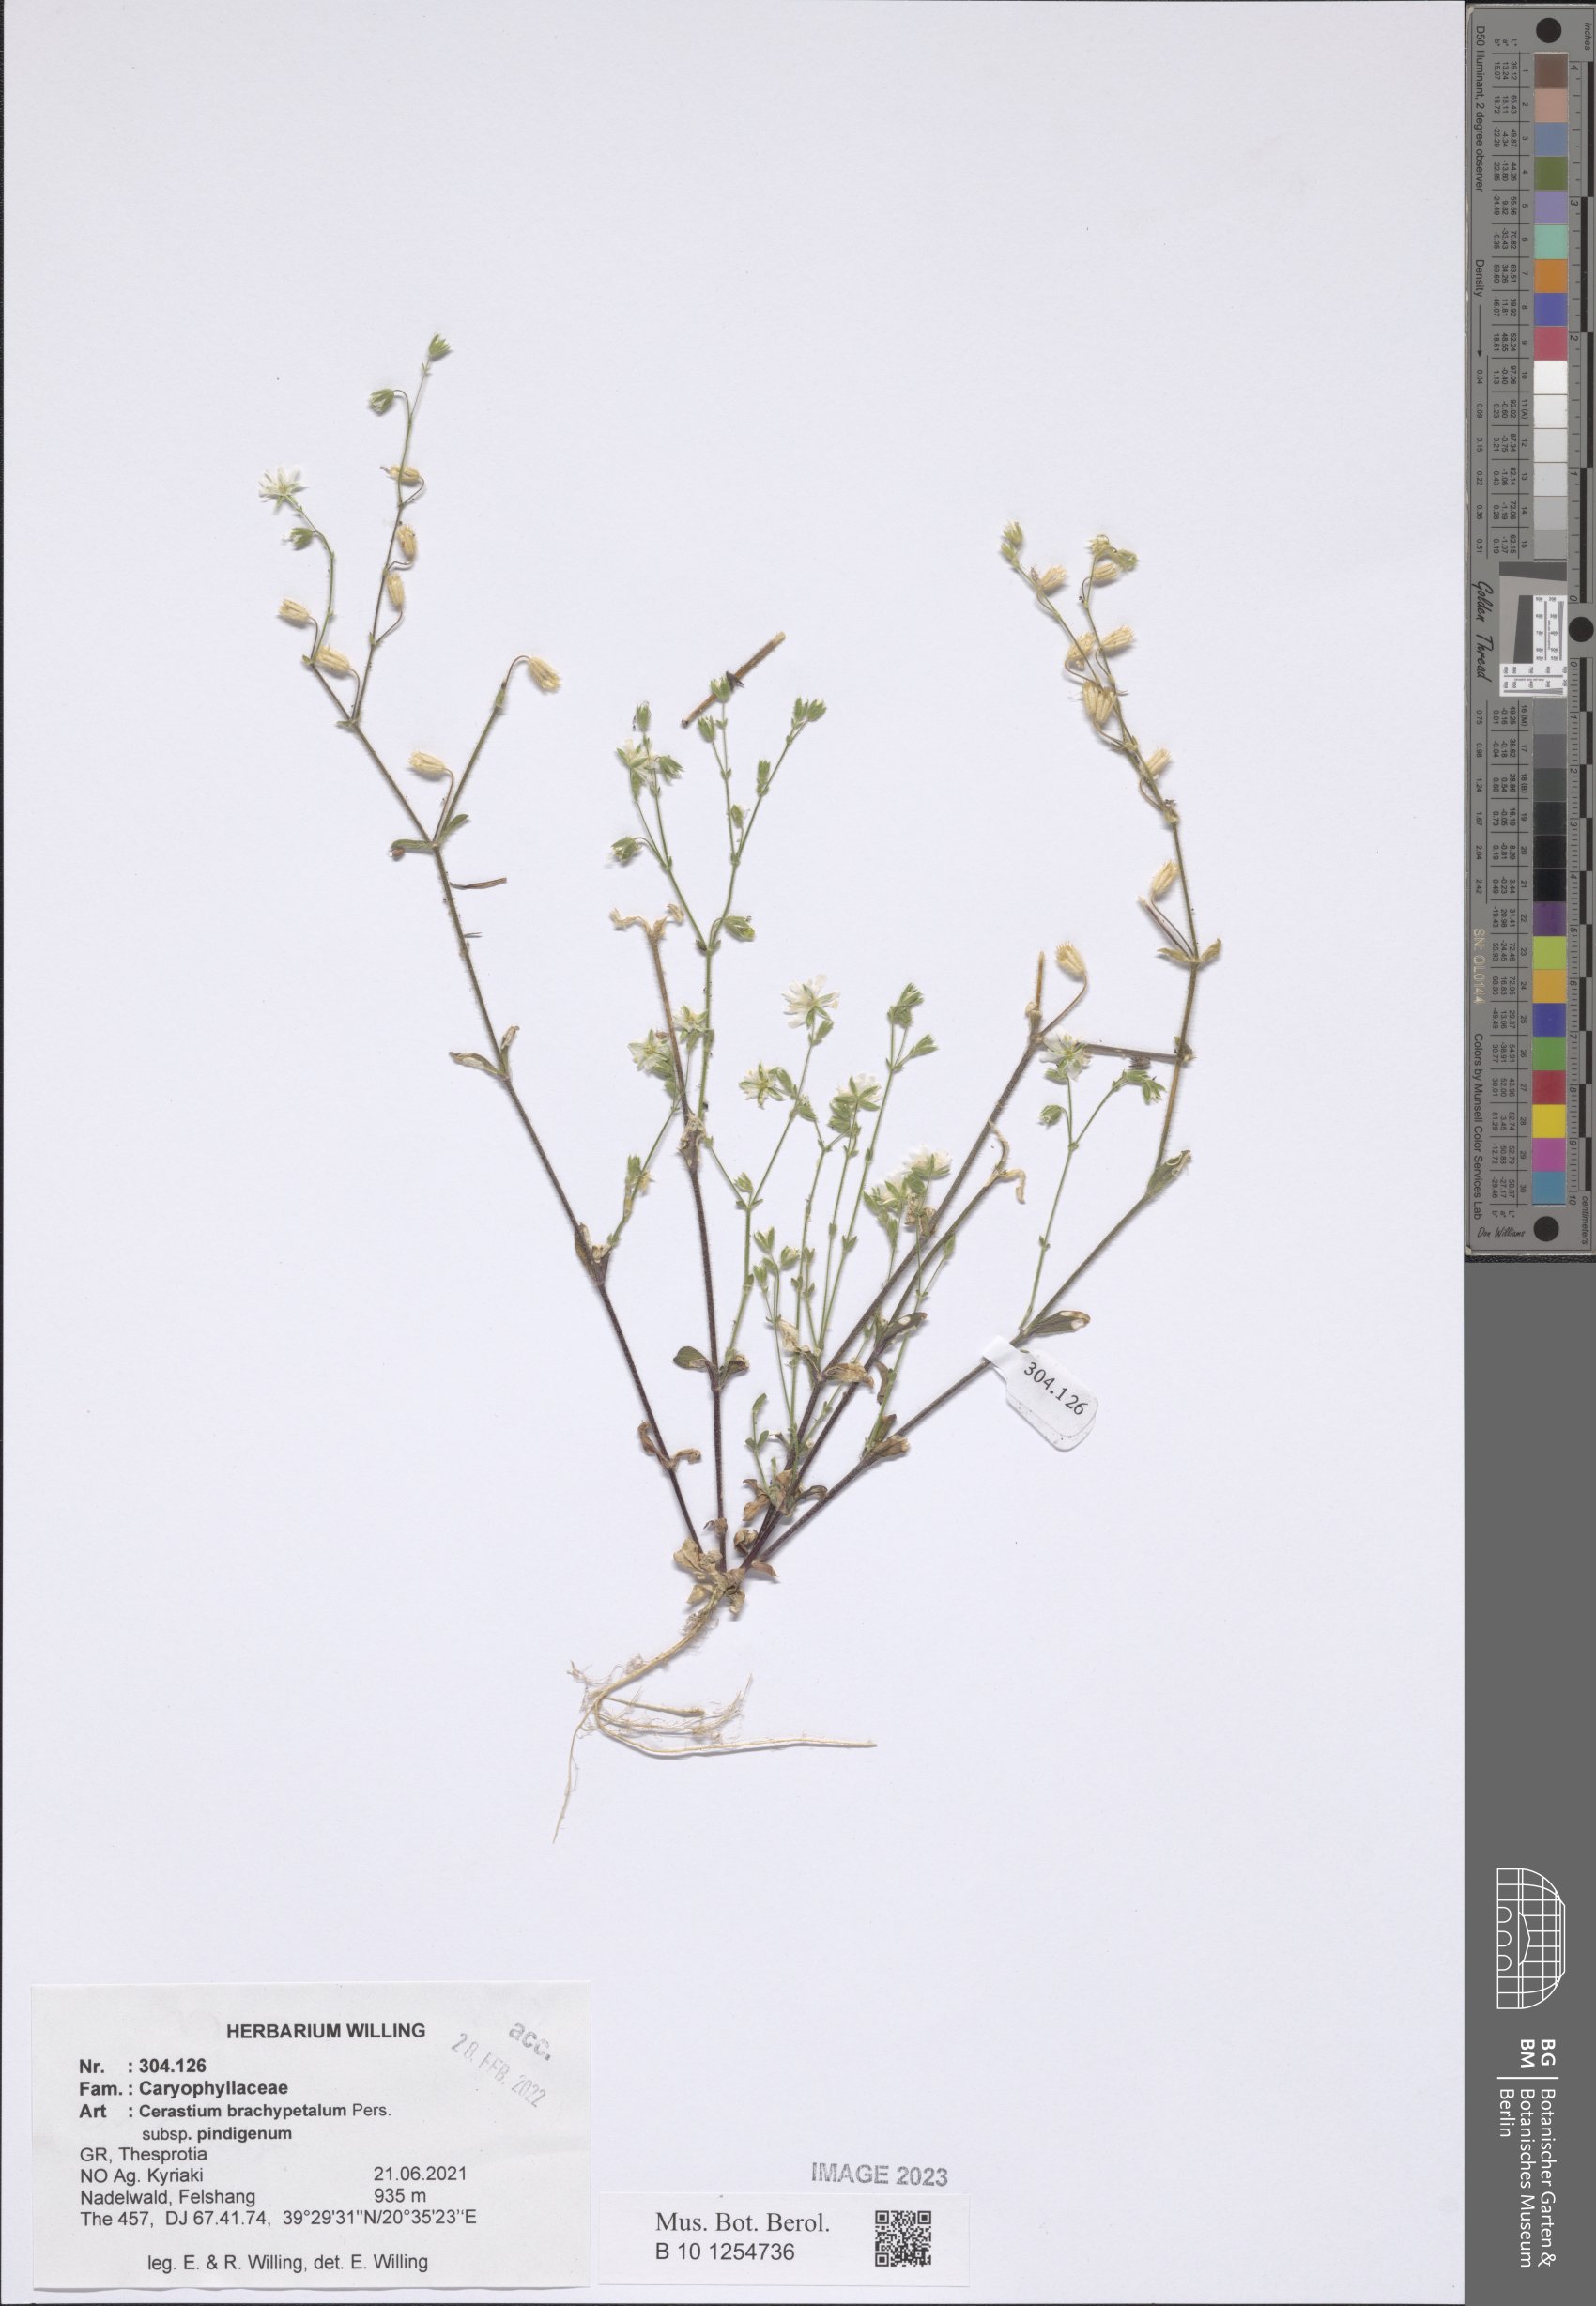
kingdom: Plantae
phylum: Tracheophyta
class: Magnoliopsida
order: Caryophyllales
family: Caryophyllaceae
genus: Cerastium
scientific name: Cerastium brachypetalum
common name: Grey mouse-ear
